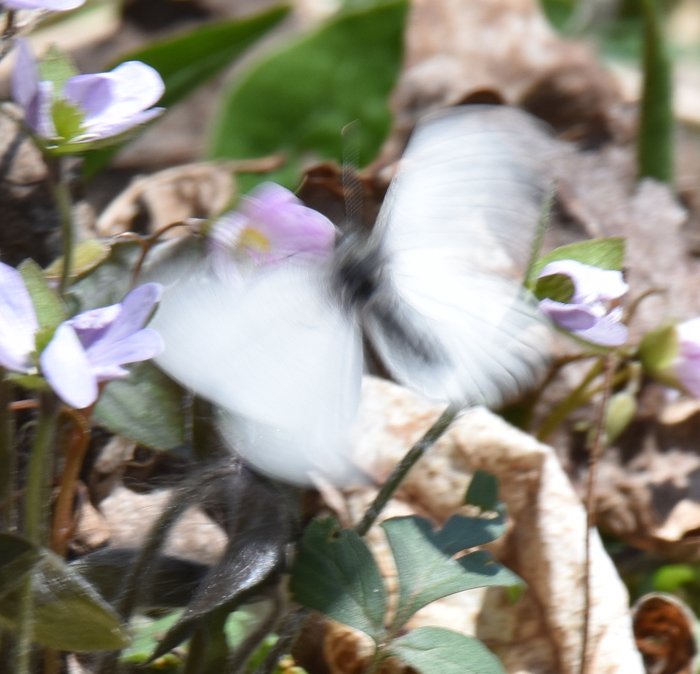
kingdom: Animalia
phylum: Arthropoda
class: Insecta
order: Lepidoptera
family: Pieridae
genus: Pieris
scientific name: Pieris
